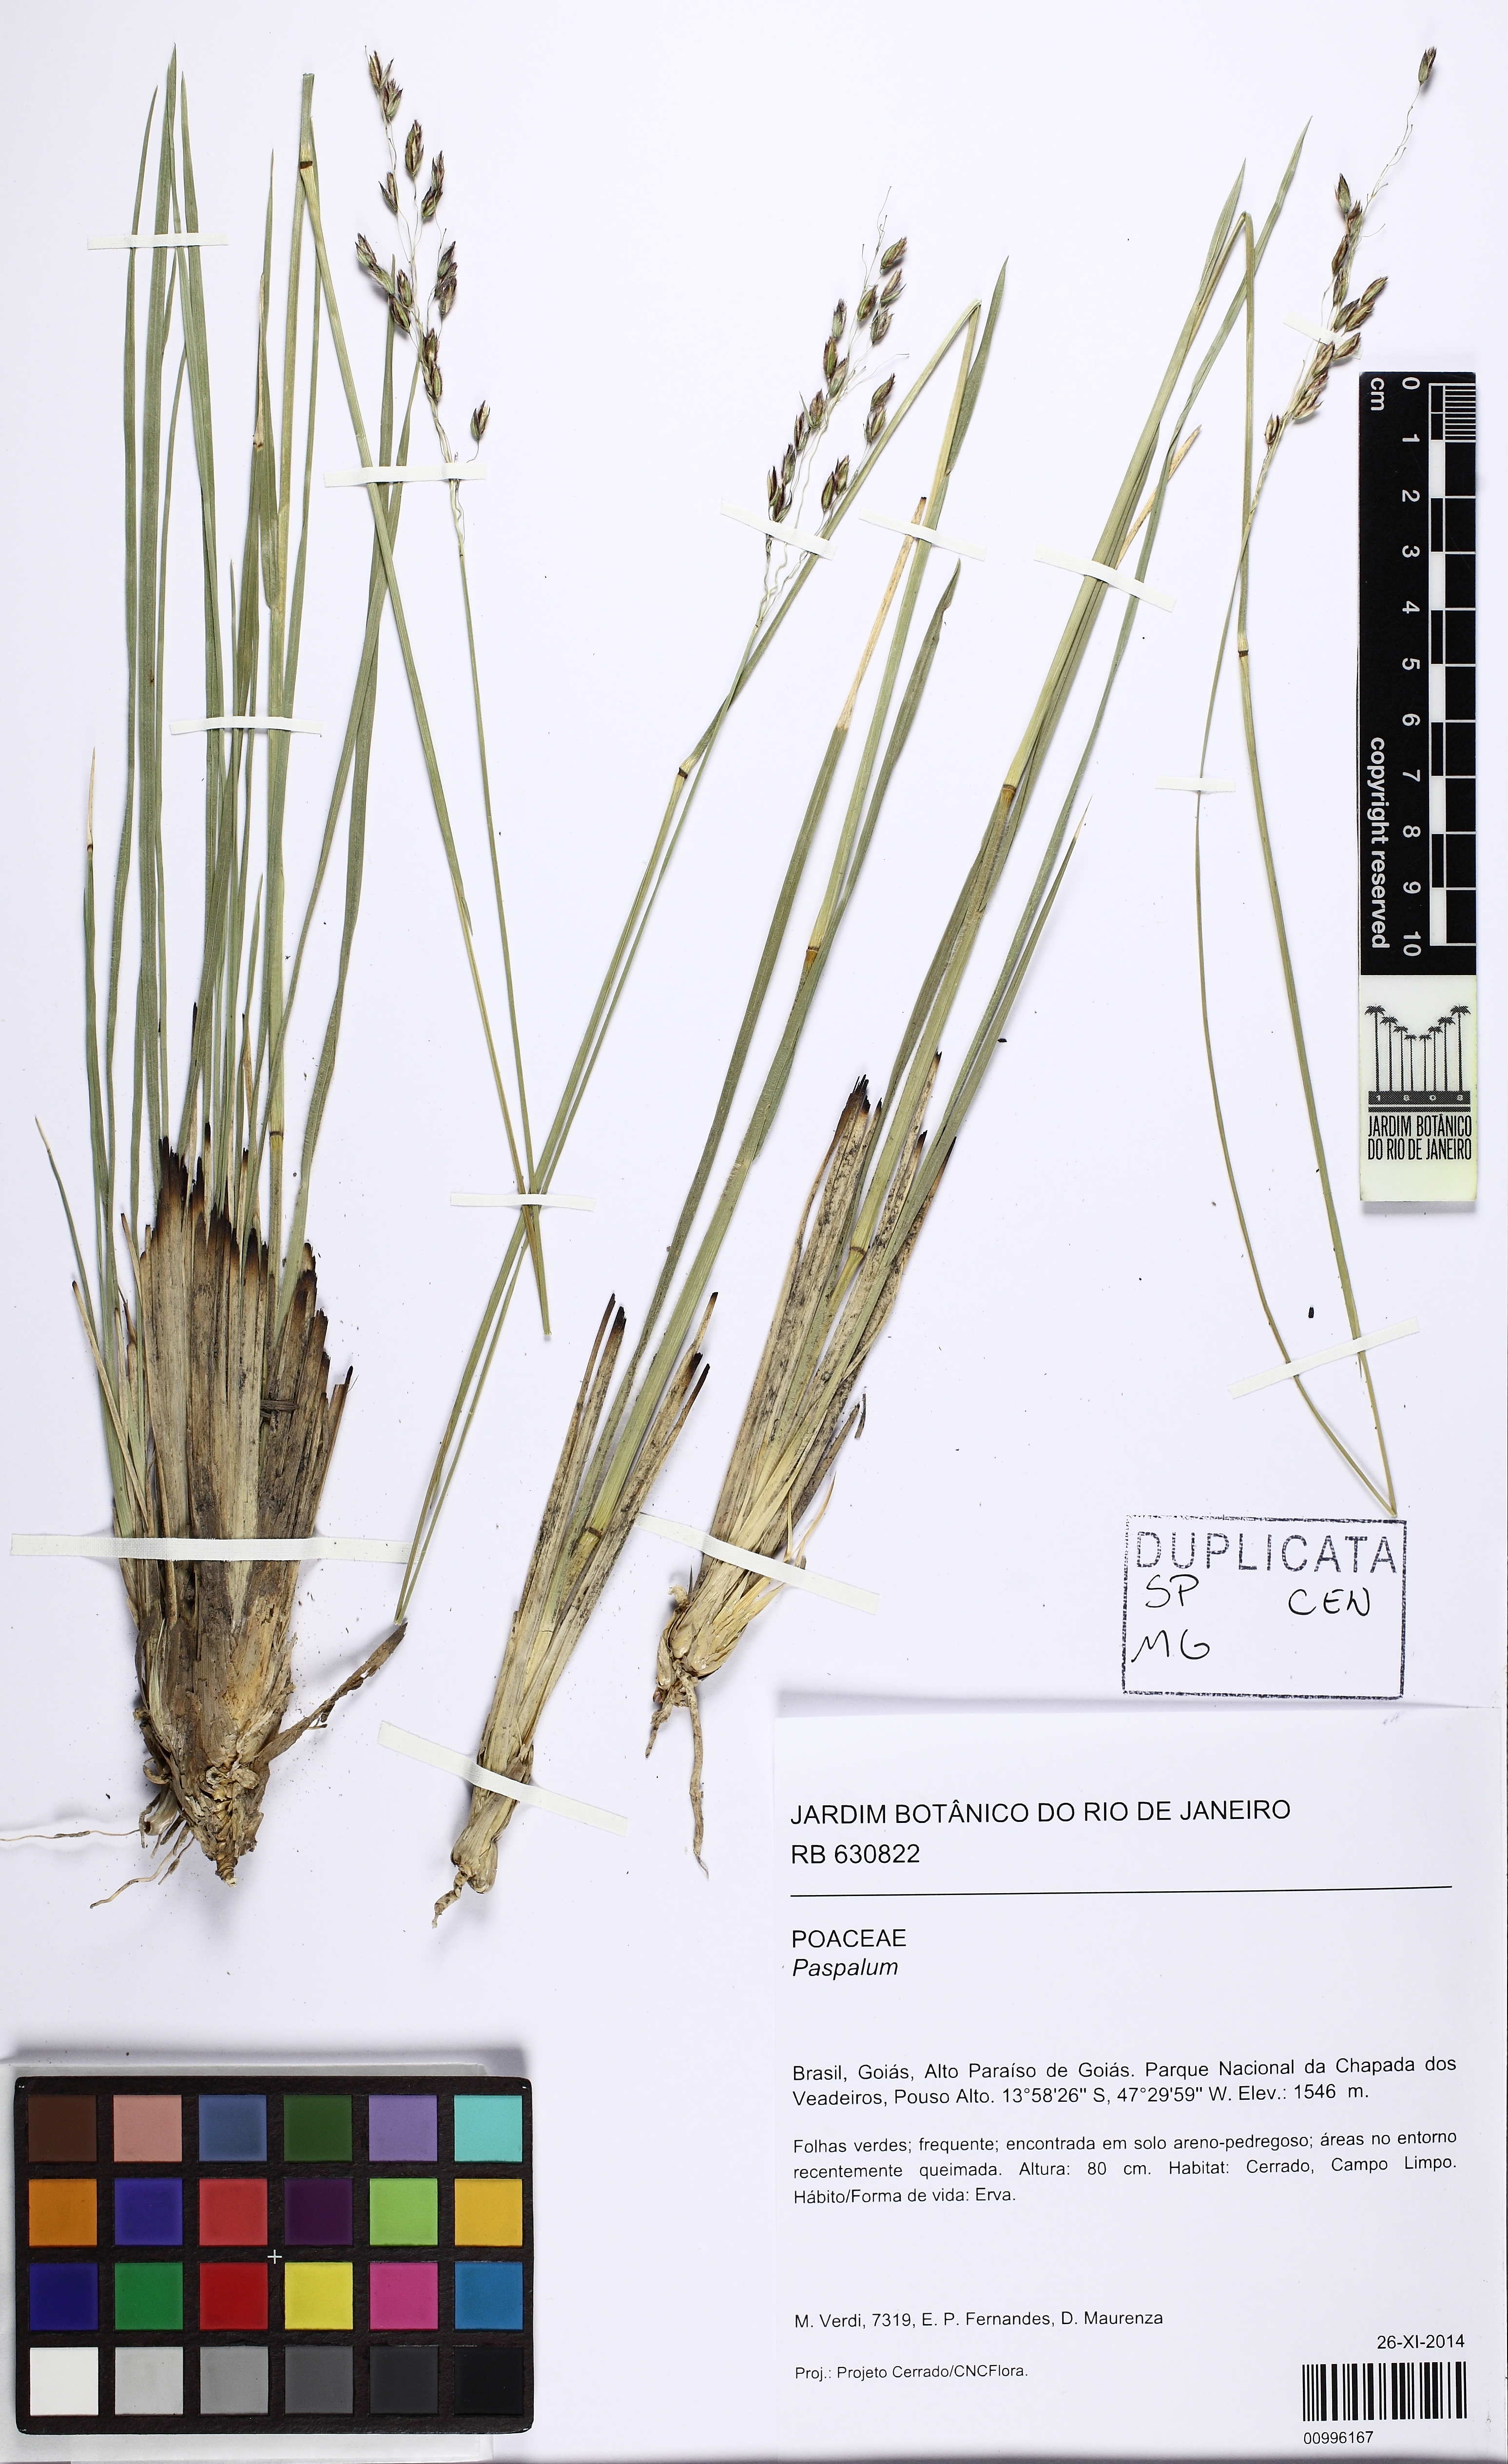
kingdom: Plantae
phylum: Tracheophyta
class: Liliopsida
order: Poales
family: Poaceae
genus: Paspalum
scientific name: Paspalum
